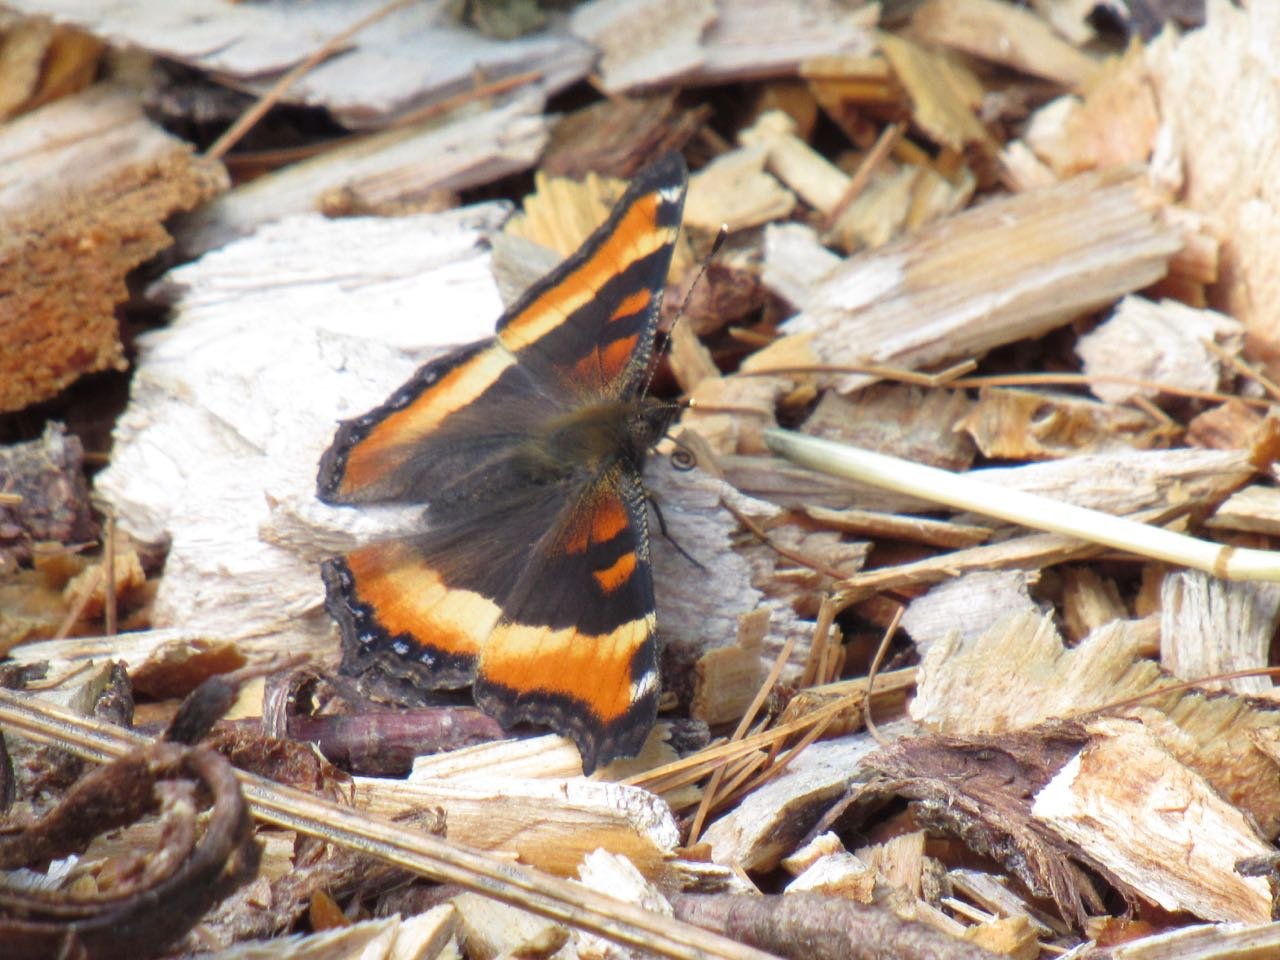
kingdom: Animalia
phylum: Arthropoda
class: Insecta
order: Lepidoptera
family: Nymphalidae
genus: Aglais
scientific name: Aglais milberti
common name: Milbert's Tortoiseshell
